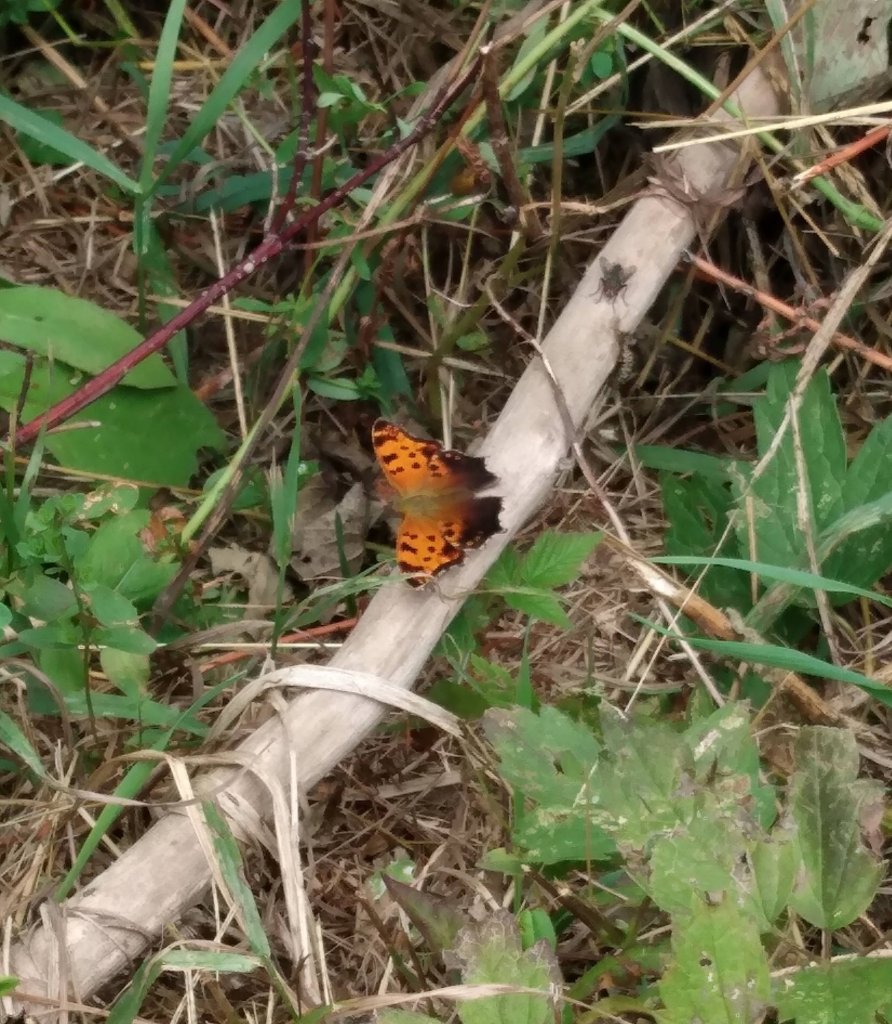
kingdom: Animalia
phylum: Arthropoda
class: Insecta
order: Lepidoptera
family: Nymphalidae
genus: Polygonia
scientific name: Polygonia comma
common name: Eastern Comma
